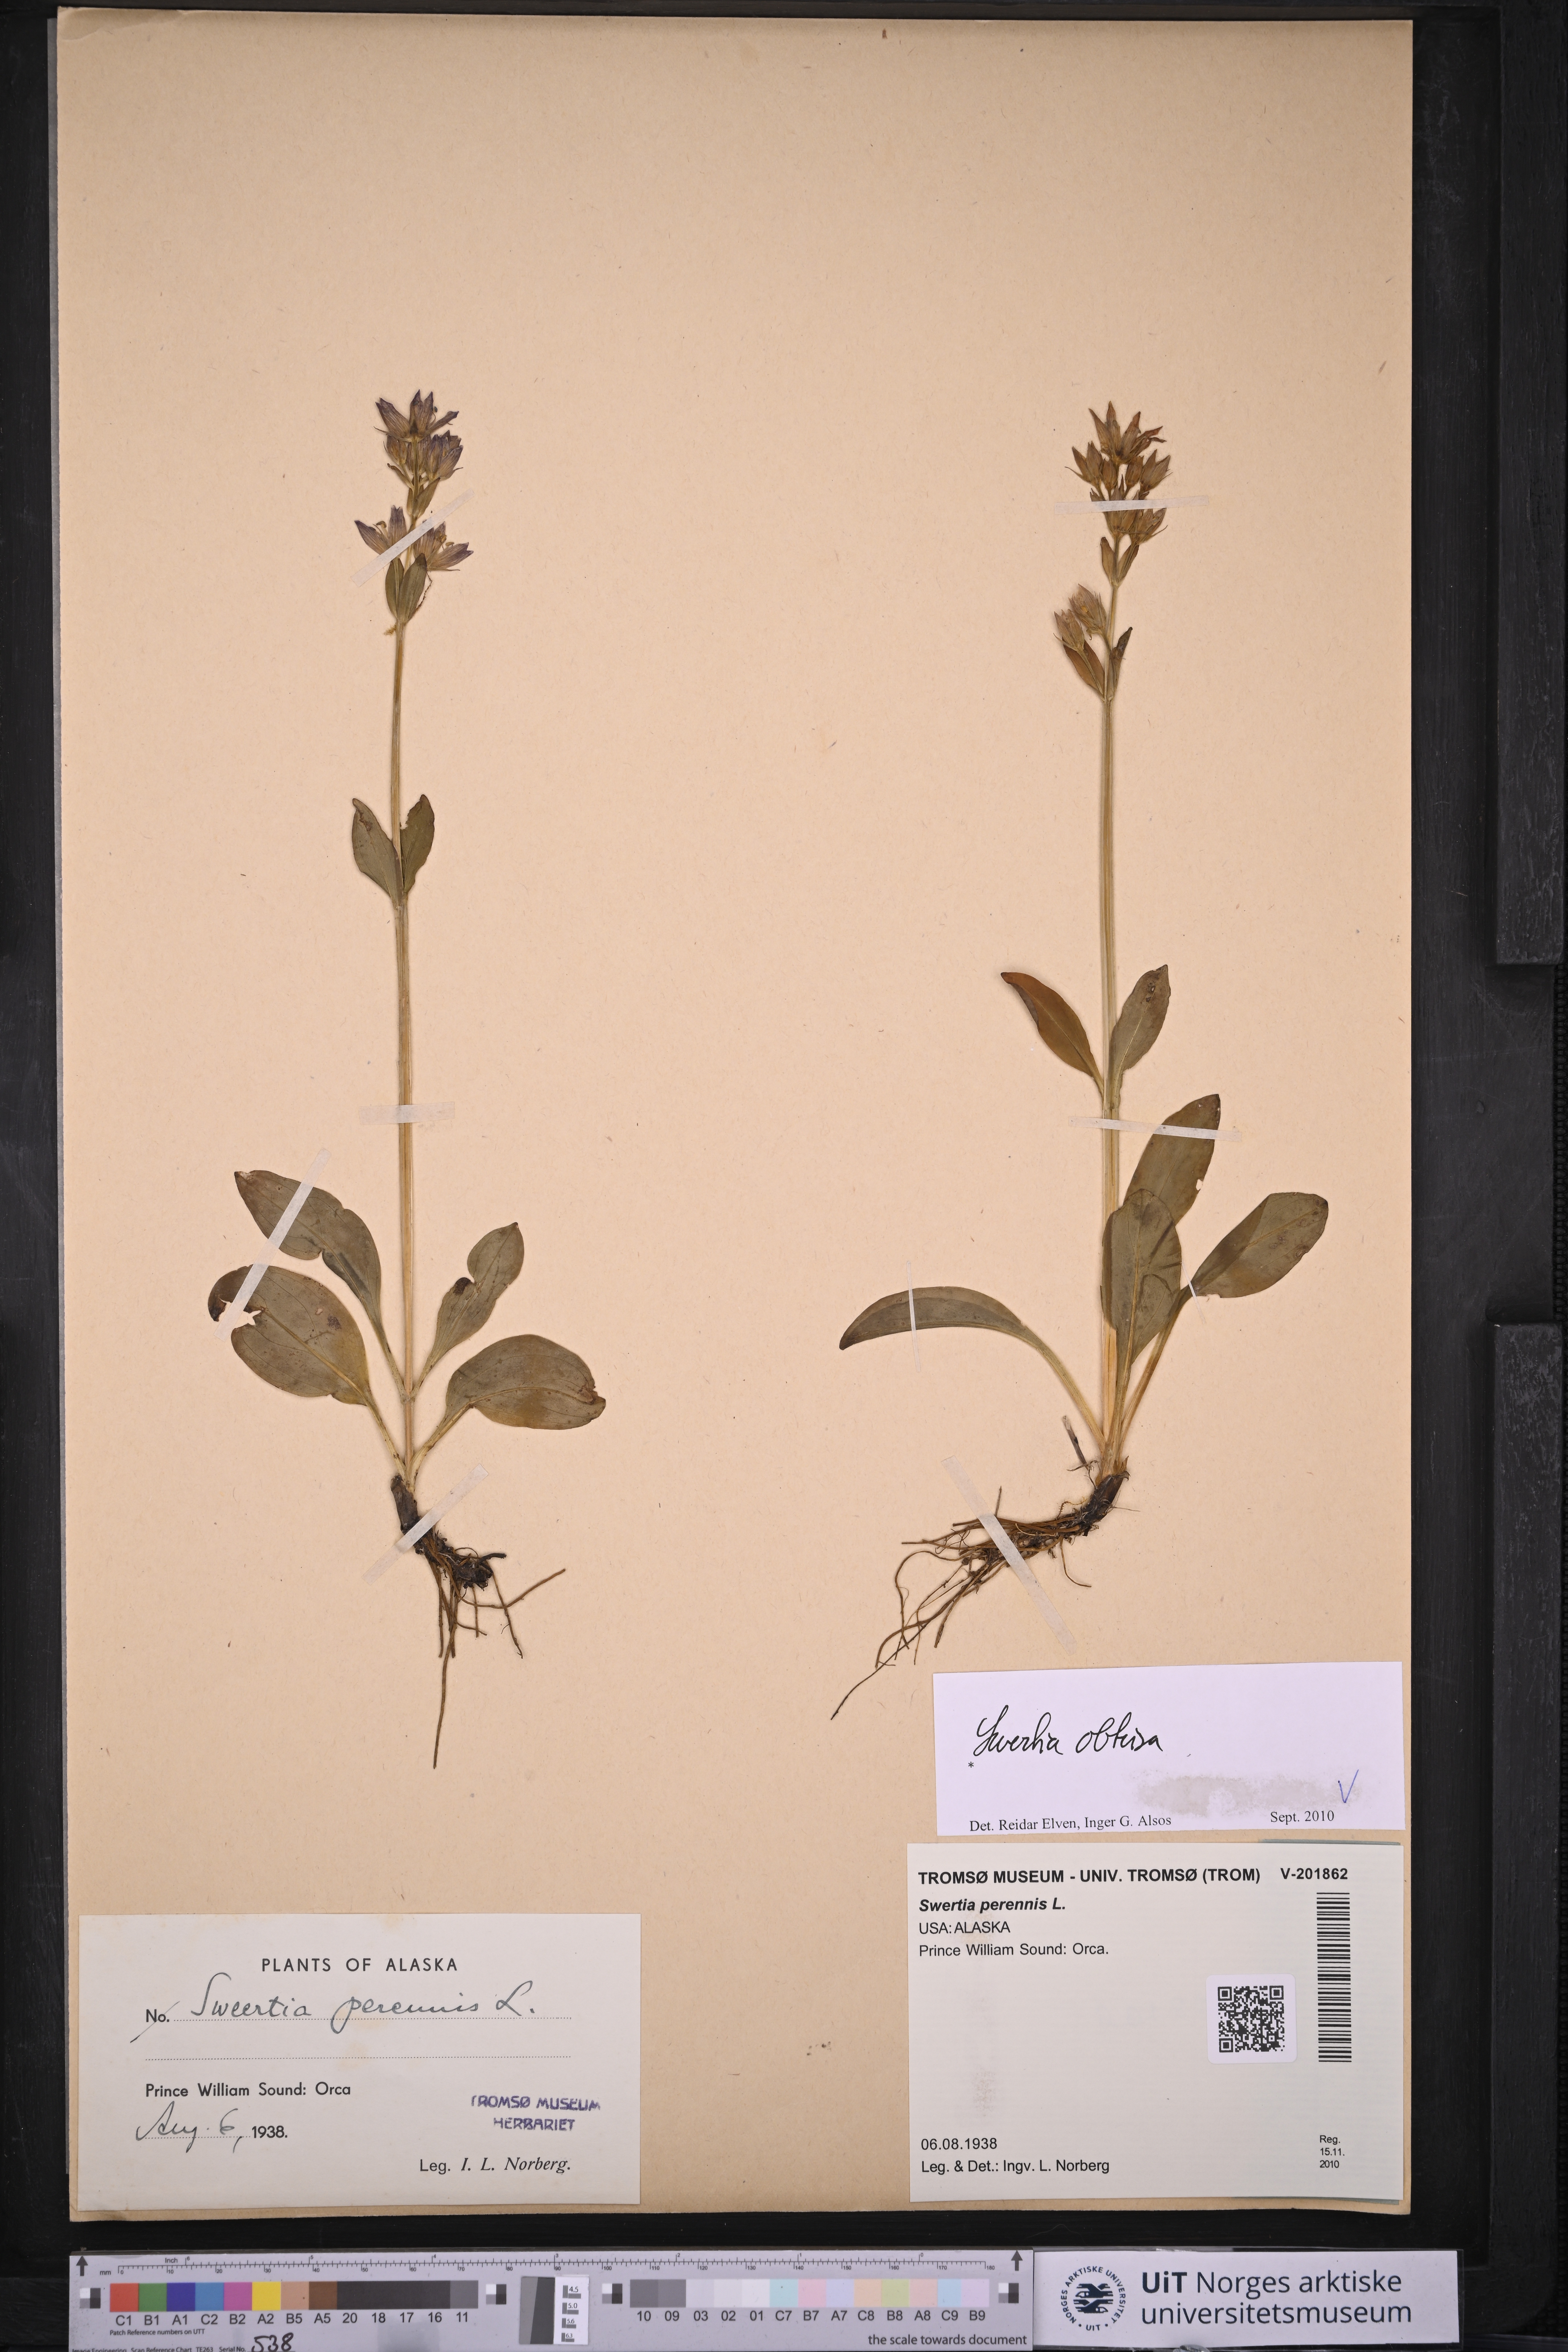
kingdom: Plantae
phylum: Tracheophyta
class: Magnoliopsida
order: Gentianales
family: Gentianaceae
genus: Swertia
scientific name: Swertia obtusa
